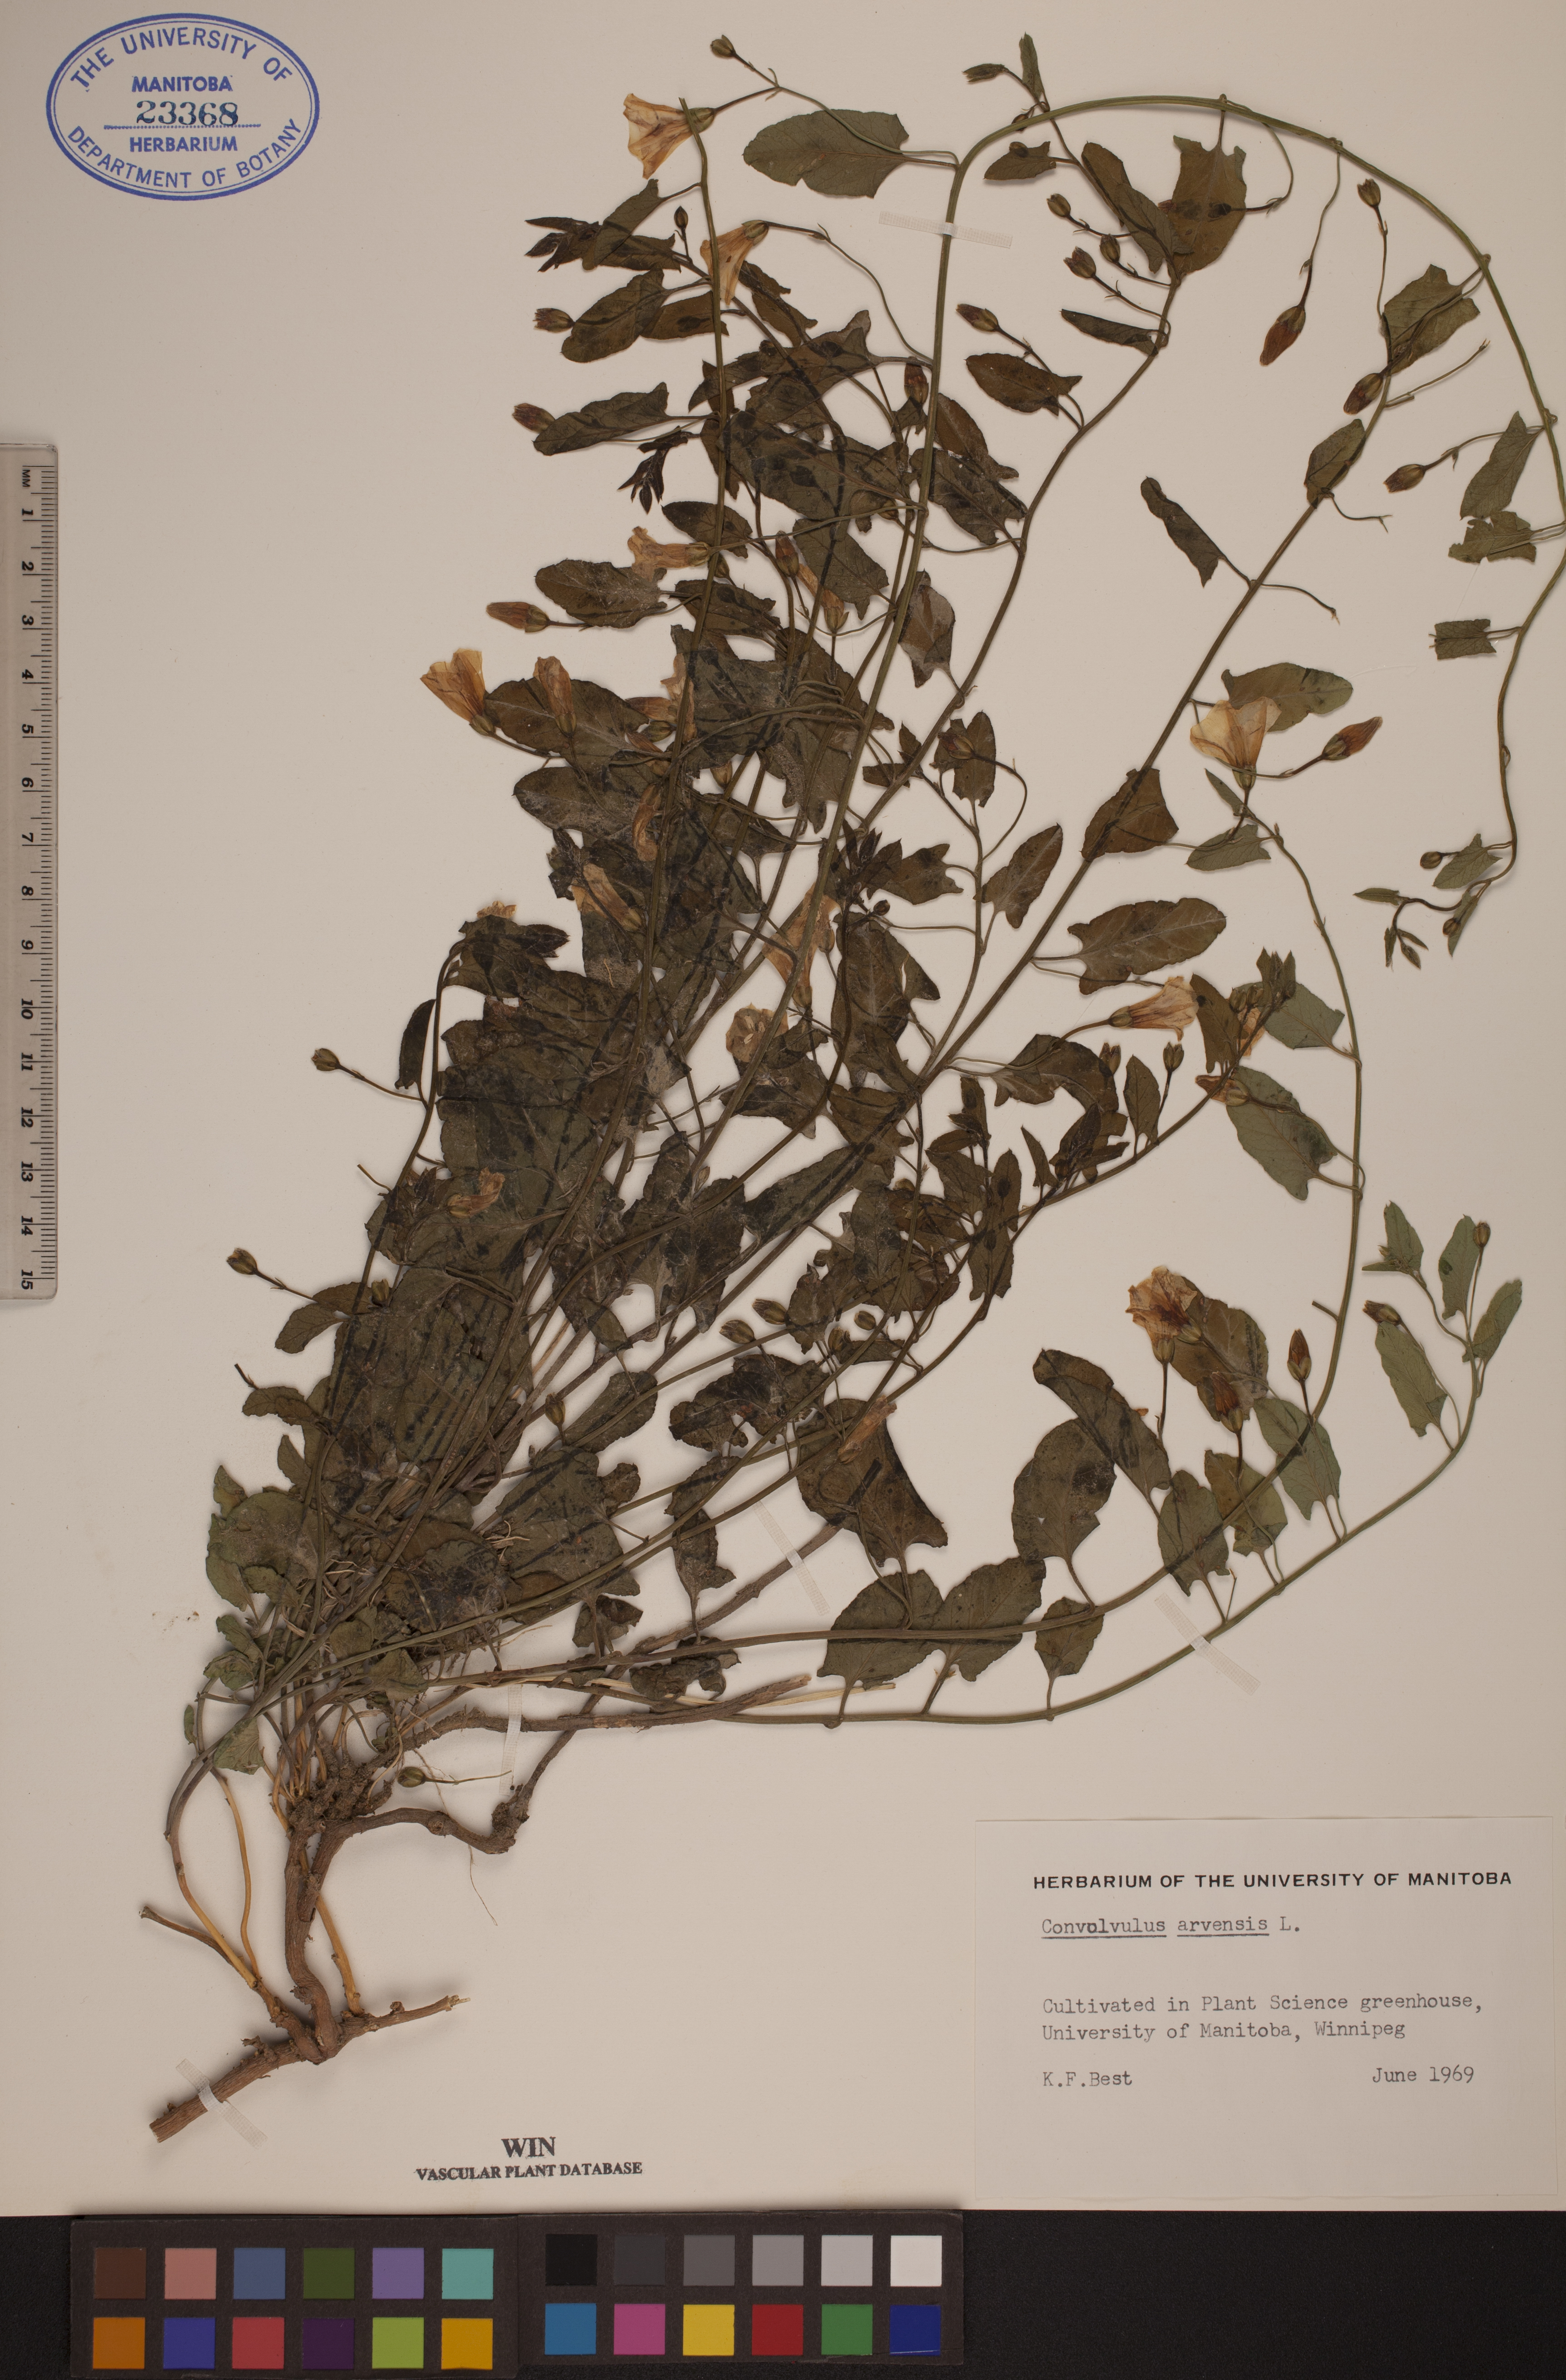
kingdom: Plantae
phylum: Tracheophyta
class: Magnoliopsida
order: Solanales
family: Convolvulaceae
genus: Convolvulus
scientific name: Convolvulus arvensis
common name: Field bindweed
